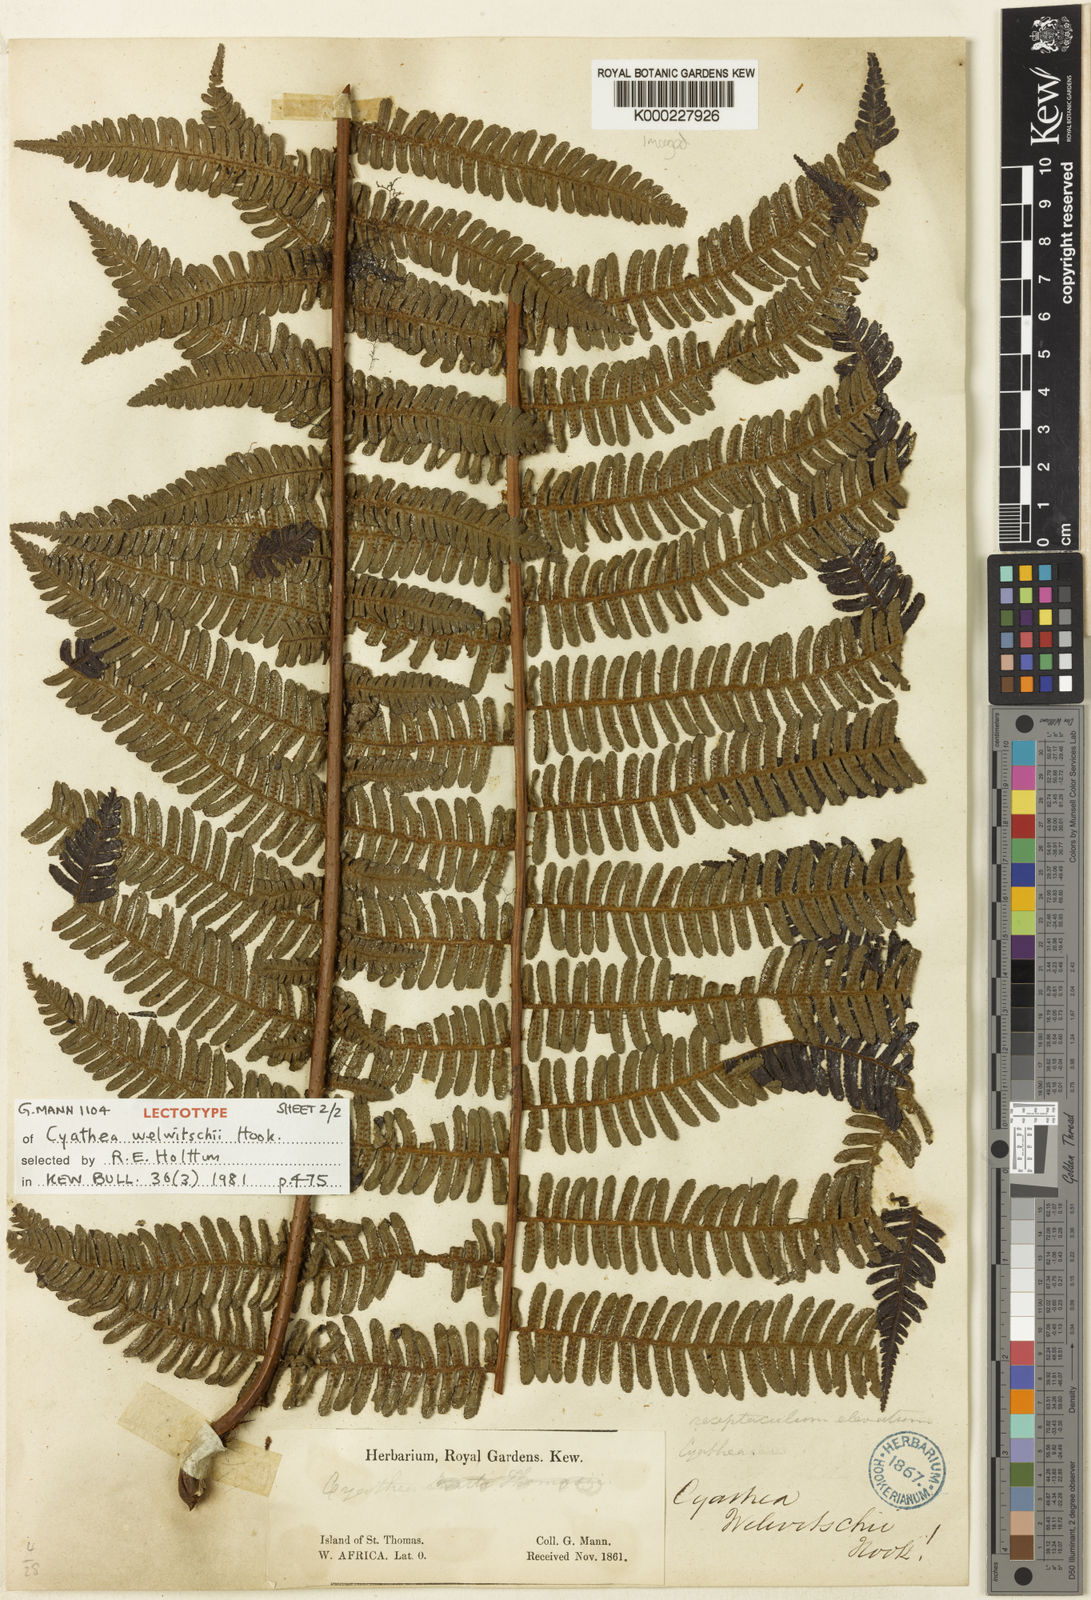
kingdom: Plantae
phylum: Tracheophyta
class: Polypodiopsida
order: Cyatheales
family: Cyatheaceae
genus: Alsophila
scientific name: Alsophila welwitschii
